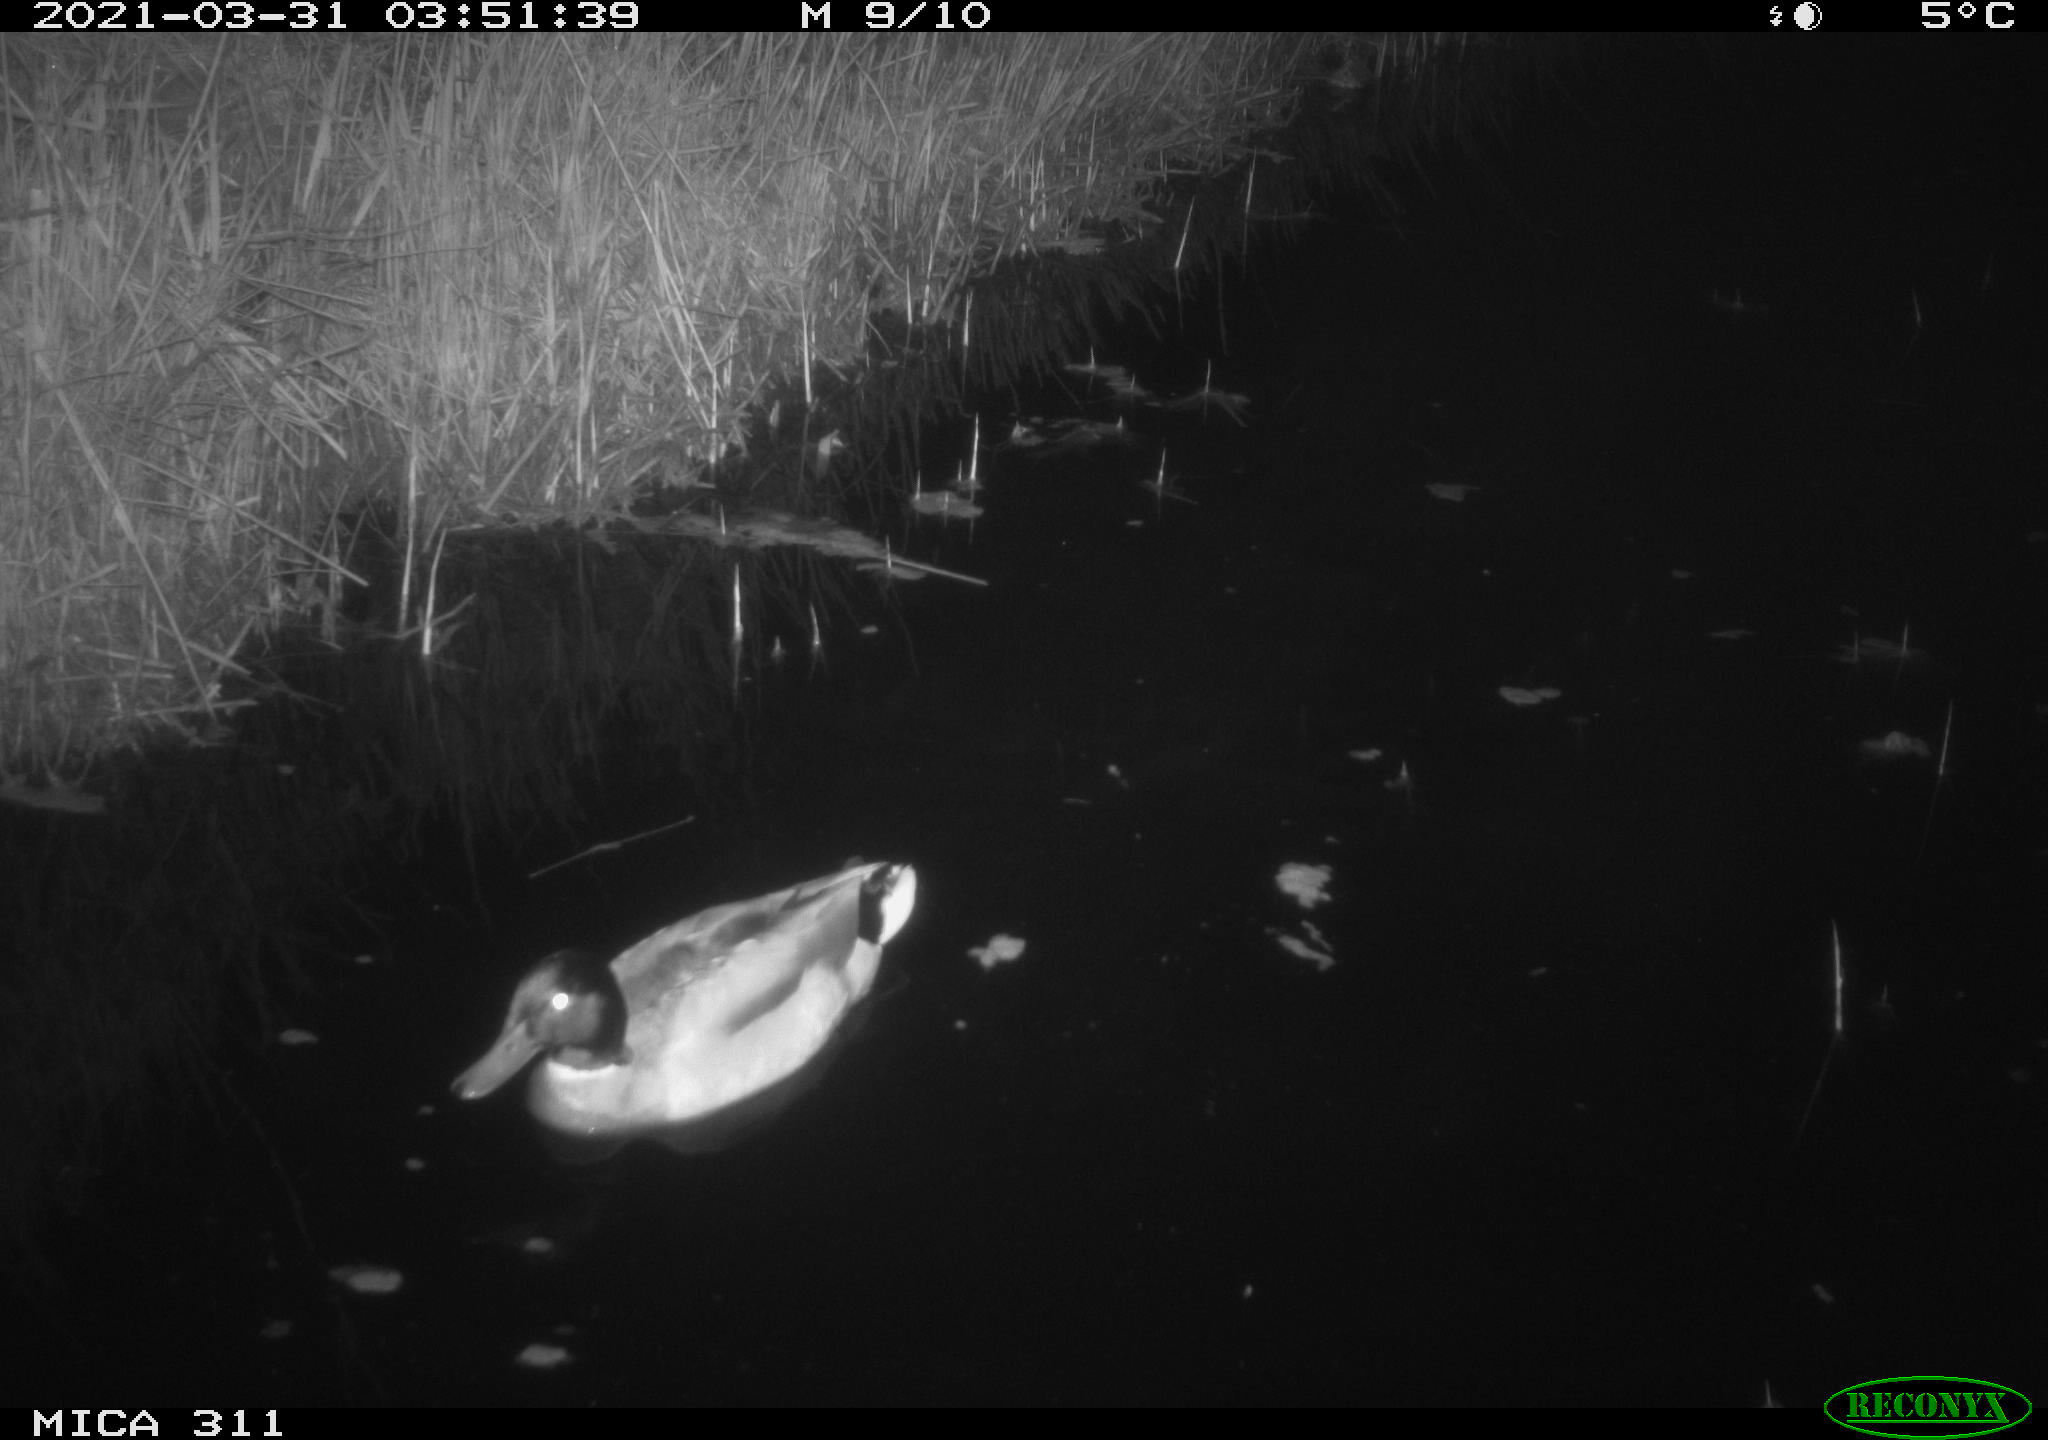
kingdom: Animalia
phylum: Chordata
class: Aves
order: Anseriformes
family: Anatidae
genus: Anas
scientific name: Anas
